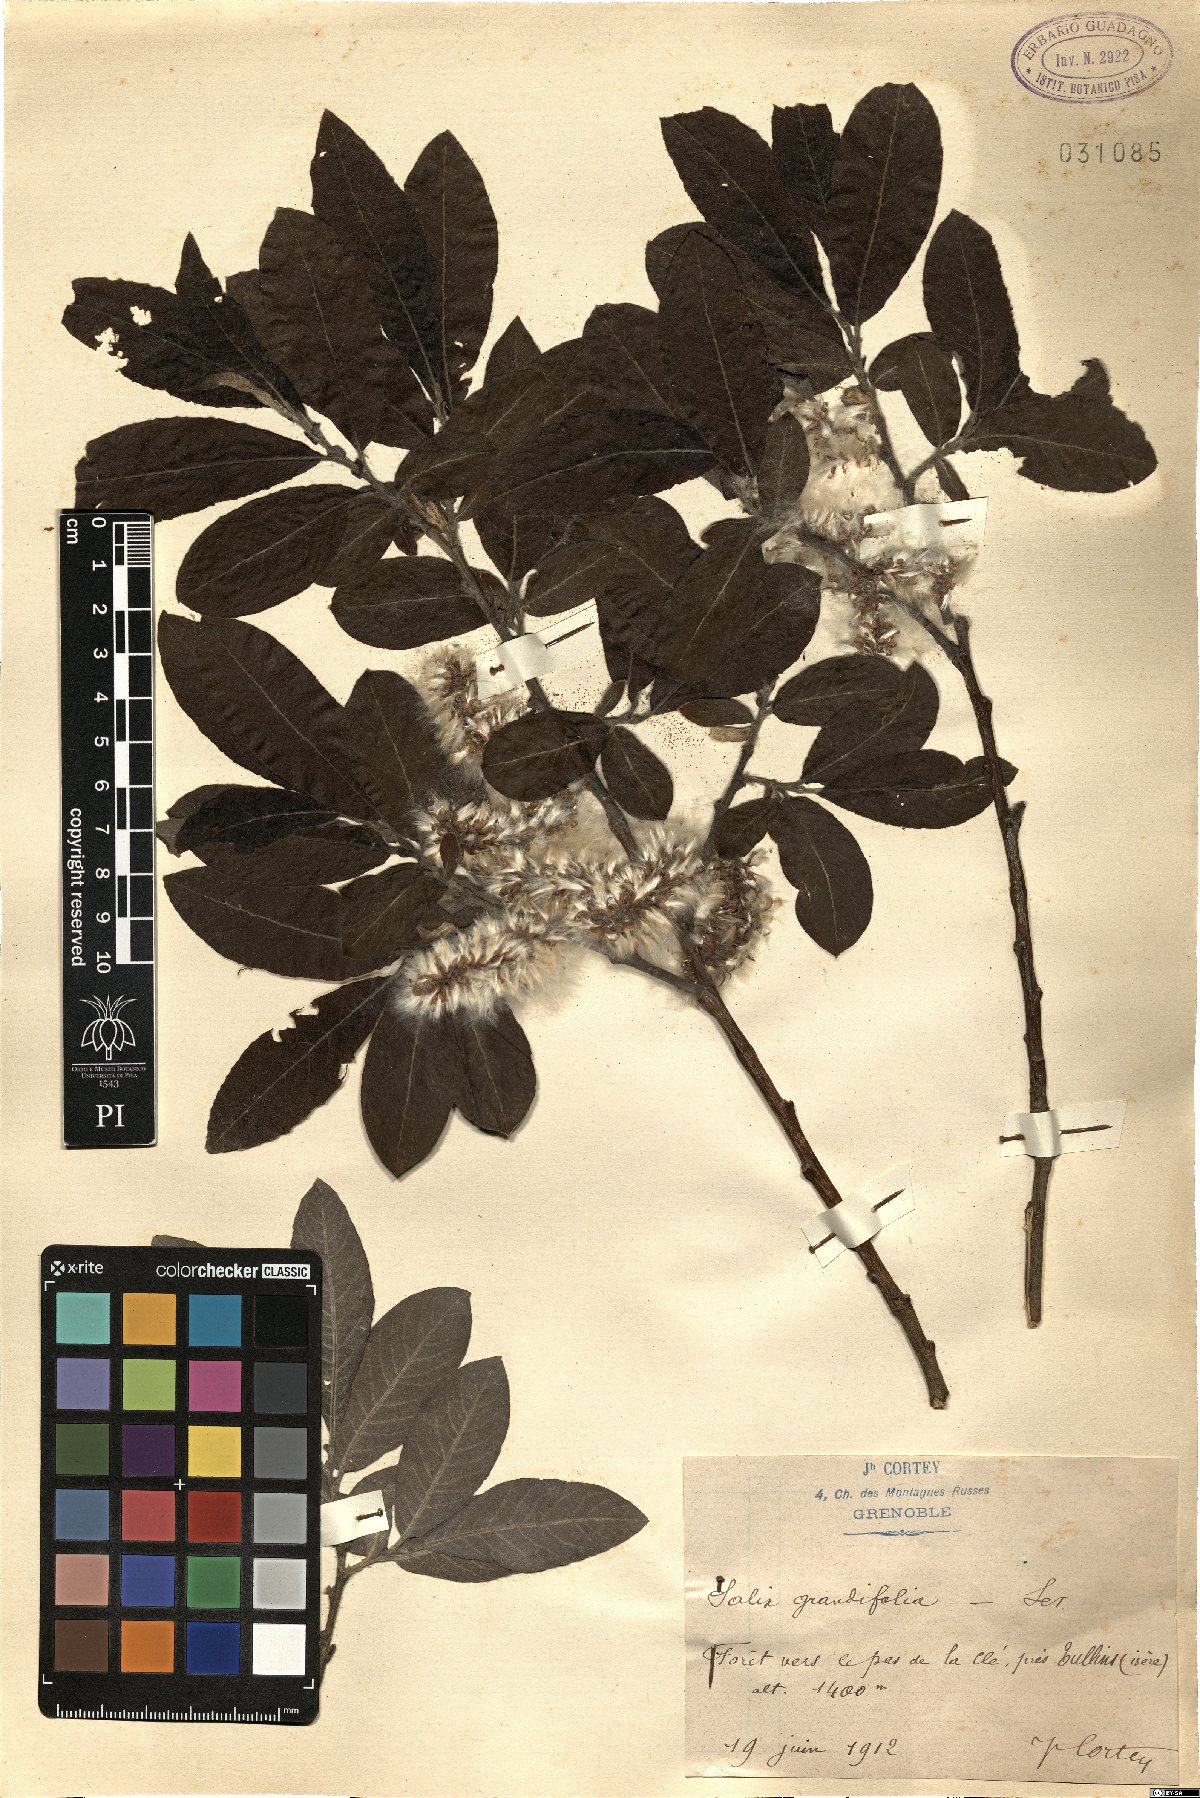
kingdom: Plantae
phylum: Tracheophyta
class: Magnoliopsida
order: Malpighiales
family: Salicaceae
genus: Salix
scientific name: Salix appendiculata
